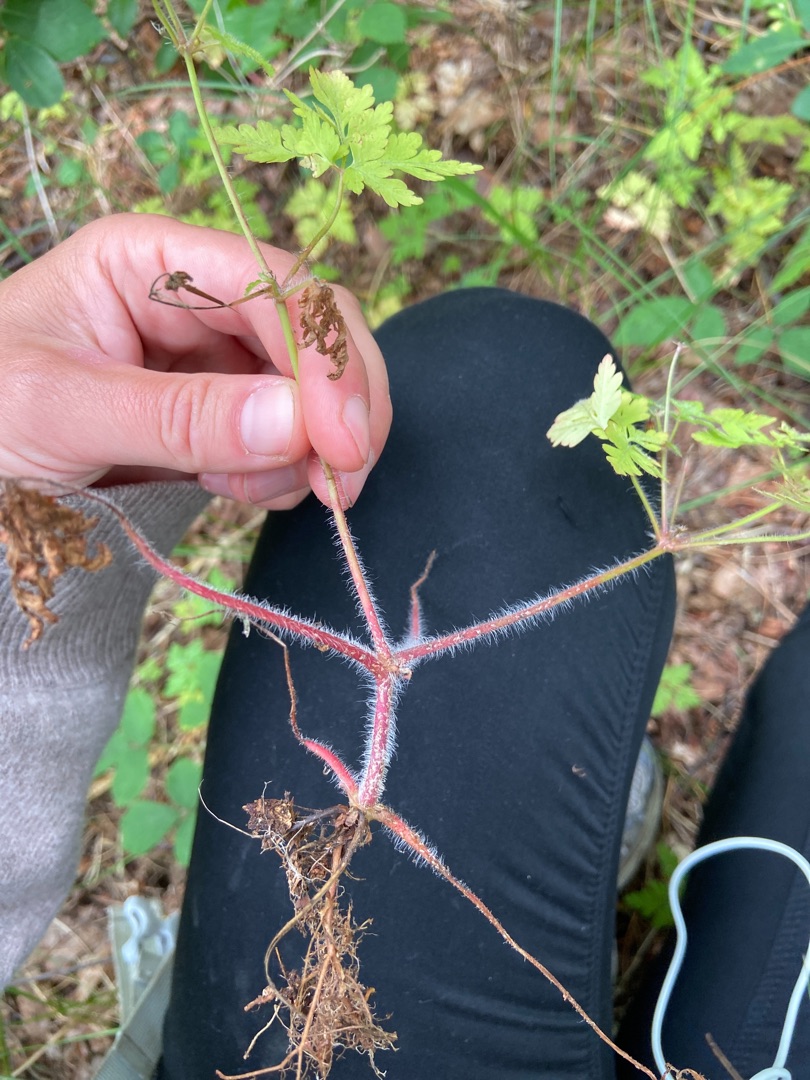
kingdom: Plantae
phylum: Tracheophyta
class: Magnoliopsida
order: Geraniales
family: Geraniaceae
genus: Geranium
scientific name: Geranium robertianum
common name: Stinkende storkenæb
